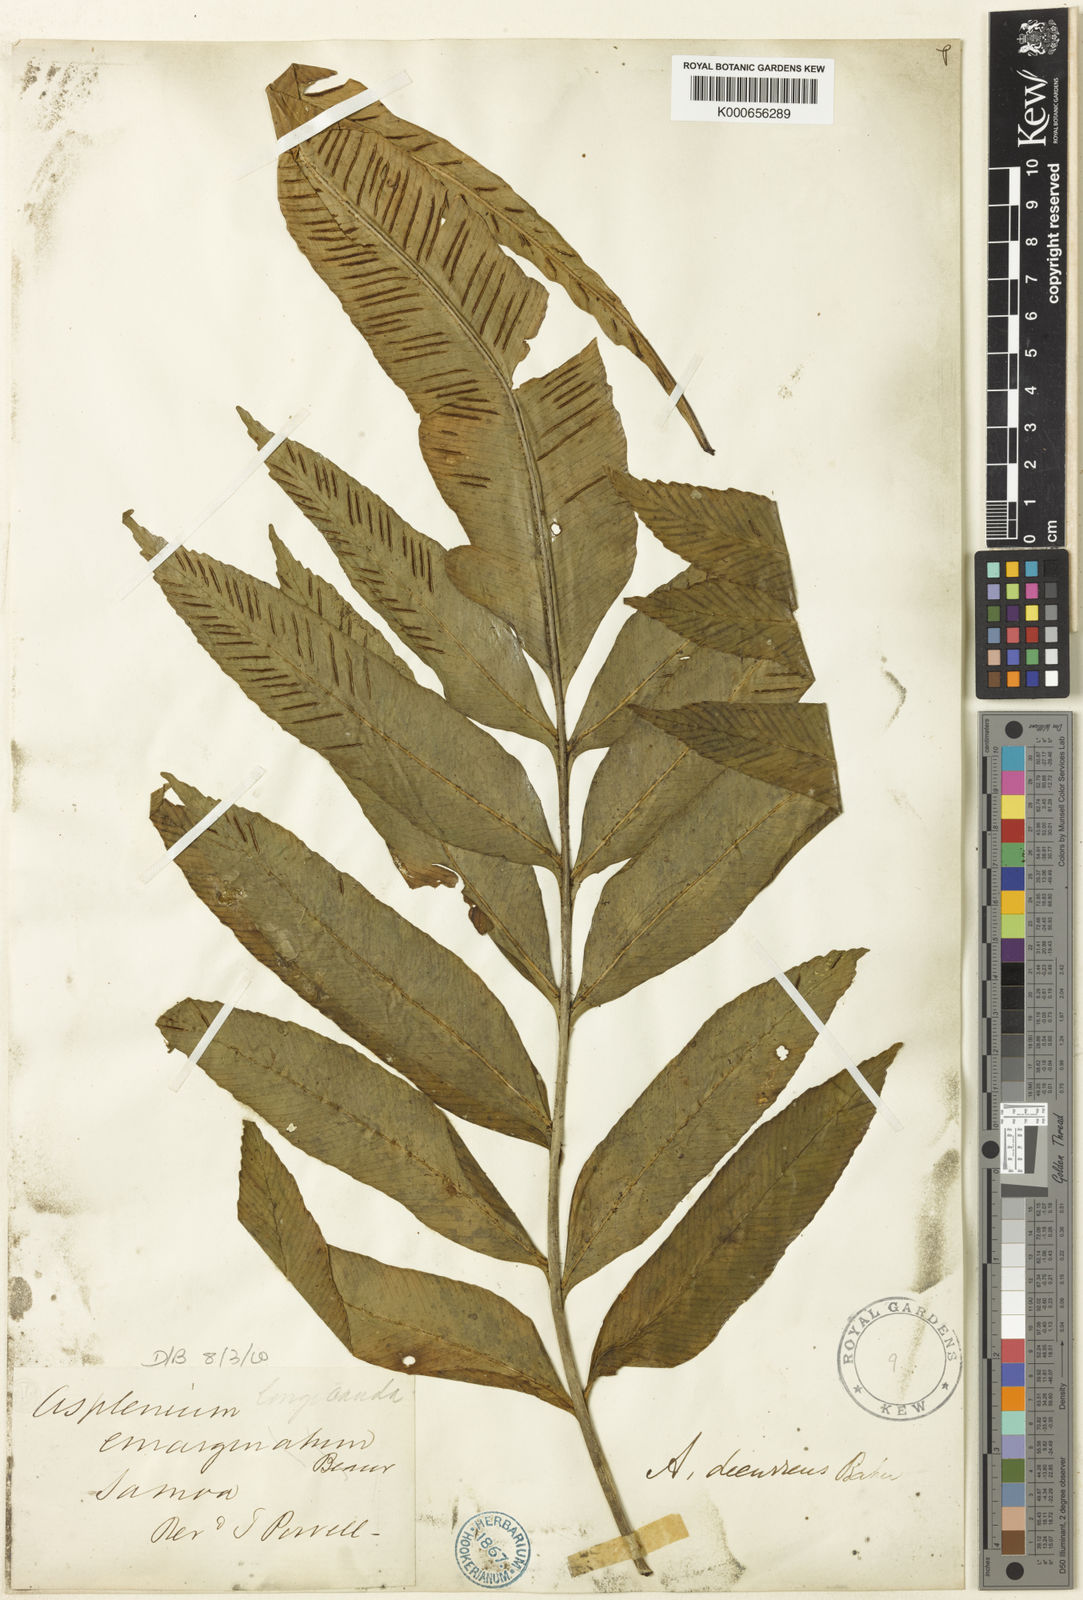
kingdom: Plantae
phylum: Tracheophyta
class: Polypodiopsida
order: Polypodiales
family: Aspleniaceae
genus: Asplenium
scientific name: Asplenium amboinense
